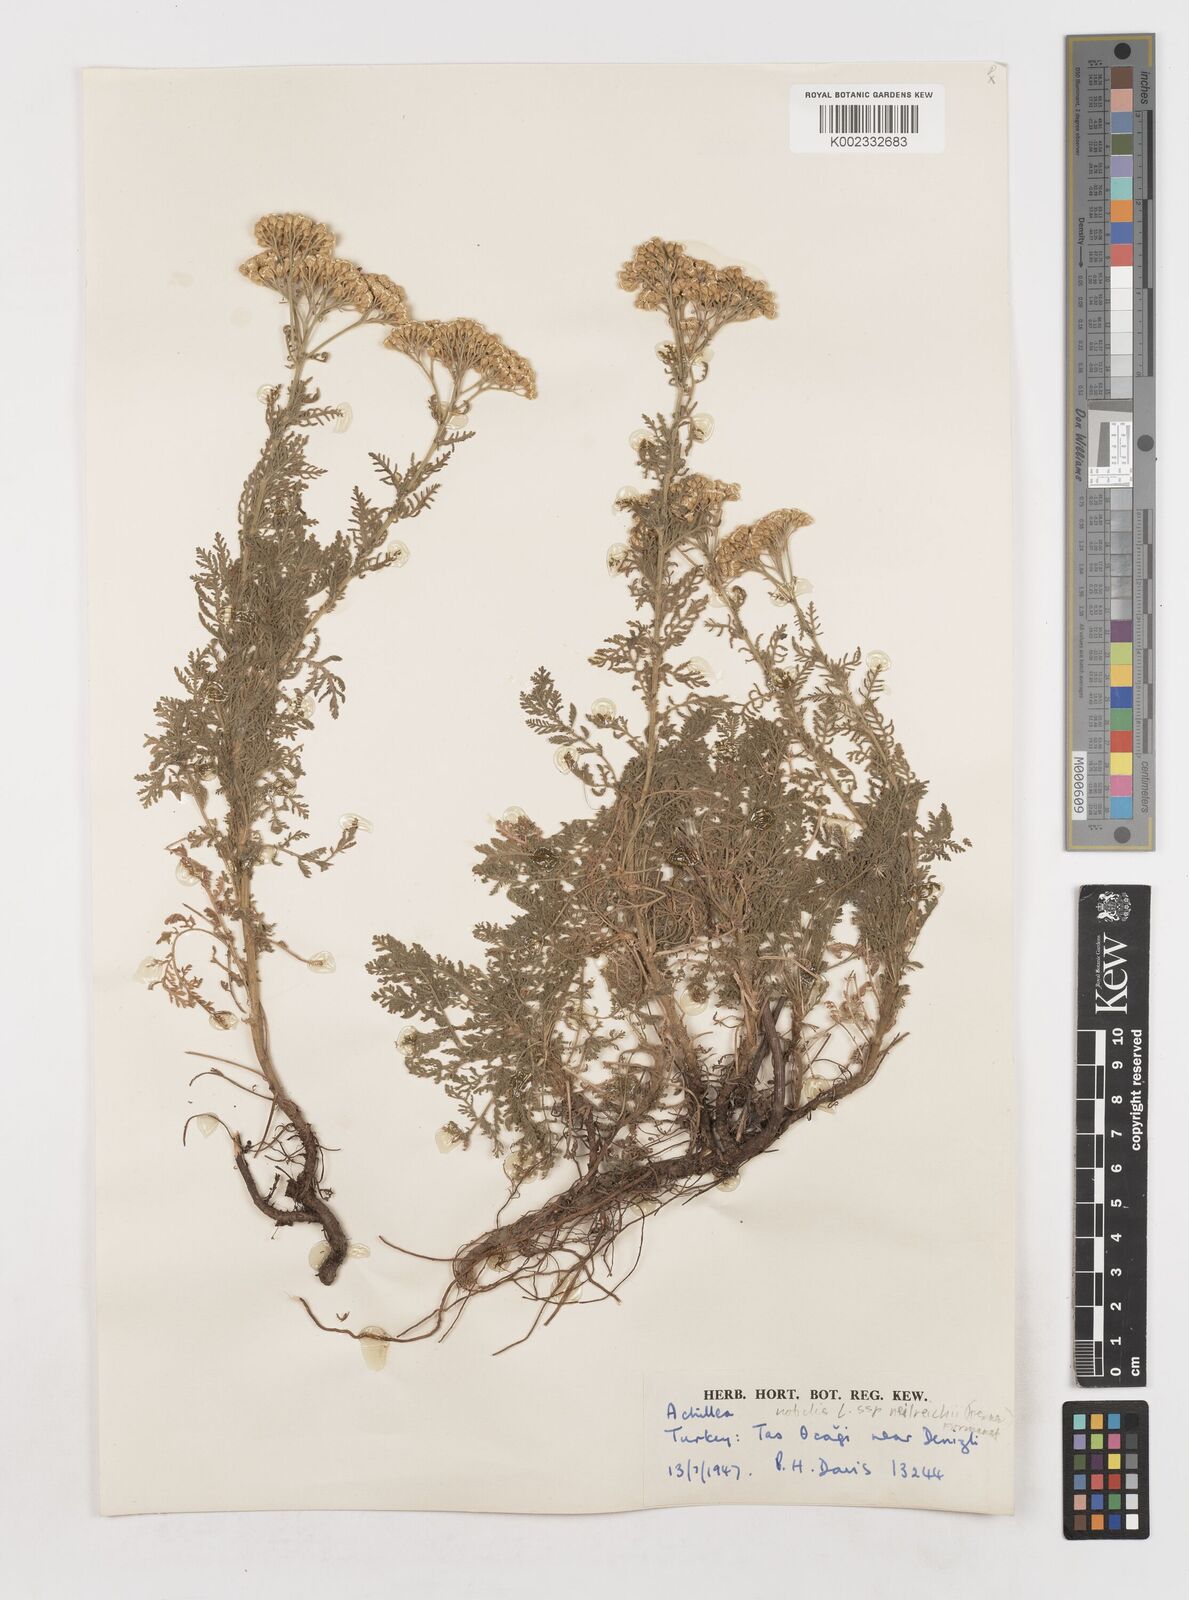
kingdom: Plantae
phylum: Tracheophyta
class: Magnoliopsida
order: Asterales
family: Asteraceae
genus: Achillea
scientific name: Achillea nobilis
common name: Noble yarrow
